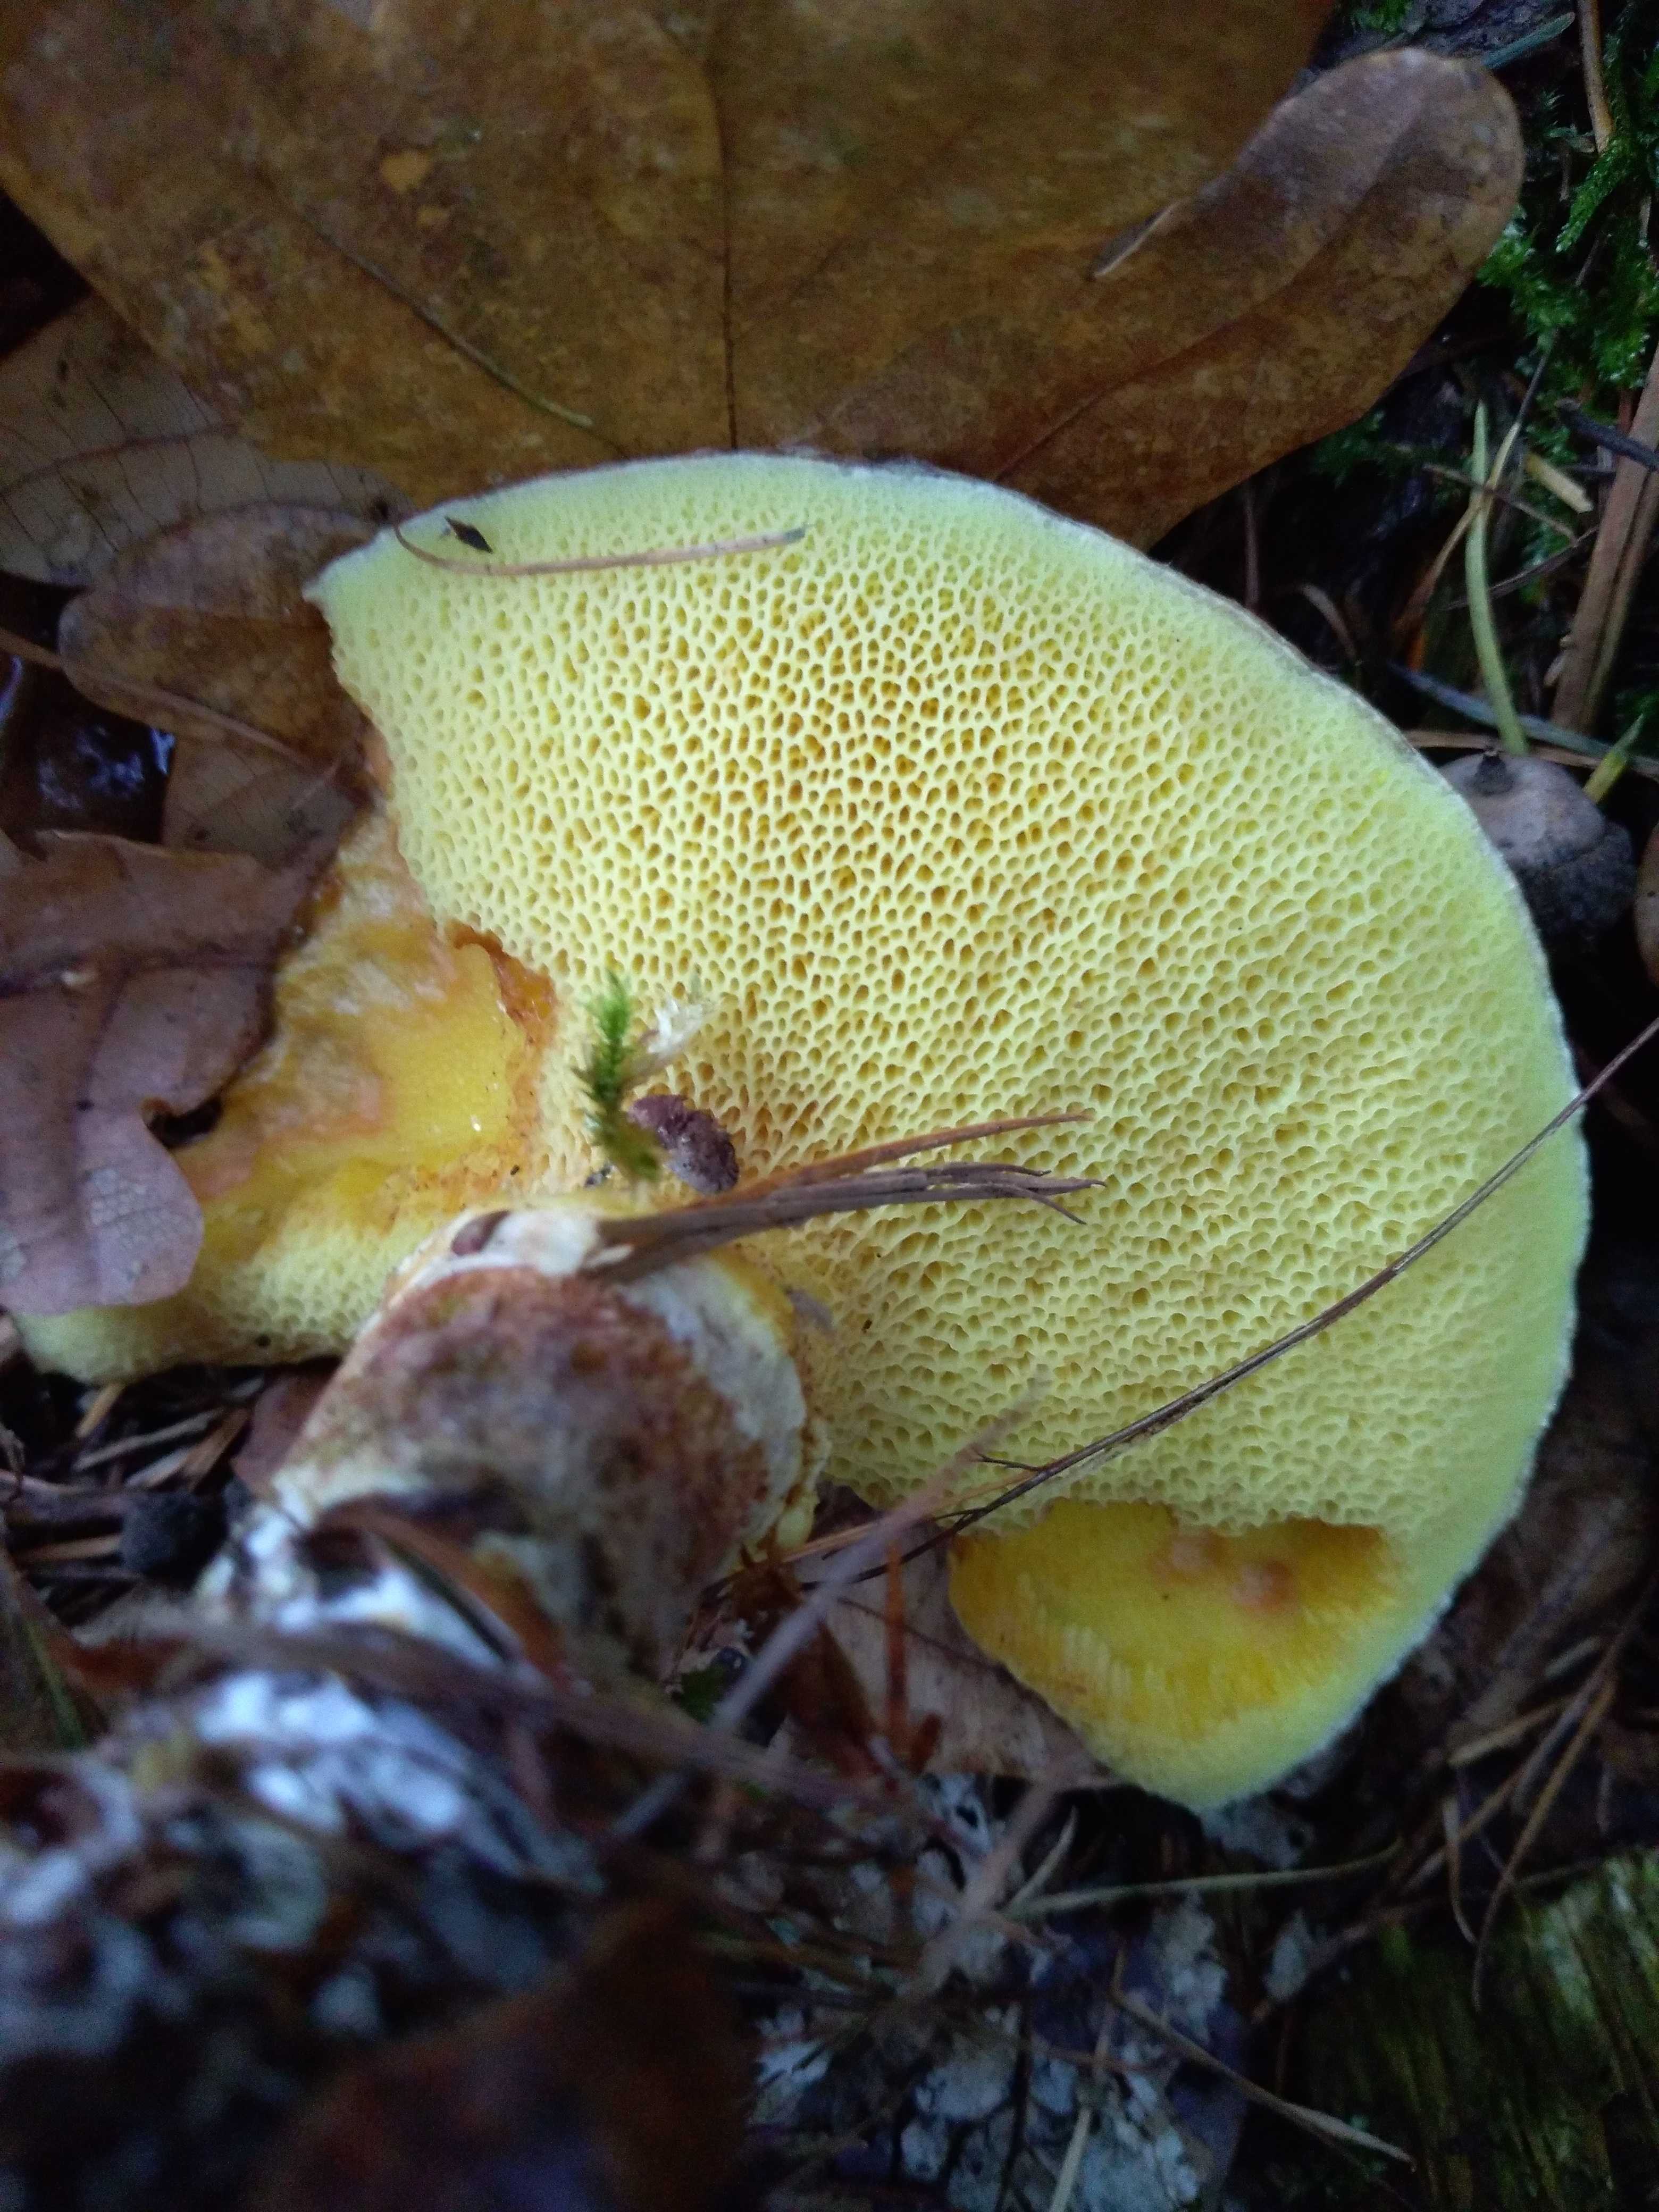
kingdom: Fungi
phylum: Basidiomycota
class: Agaricomycetes
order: Boletales
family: Suillaceae
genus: Suillus
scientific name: Suillus grevillei
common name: lærke-slimrørhat
